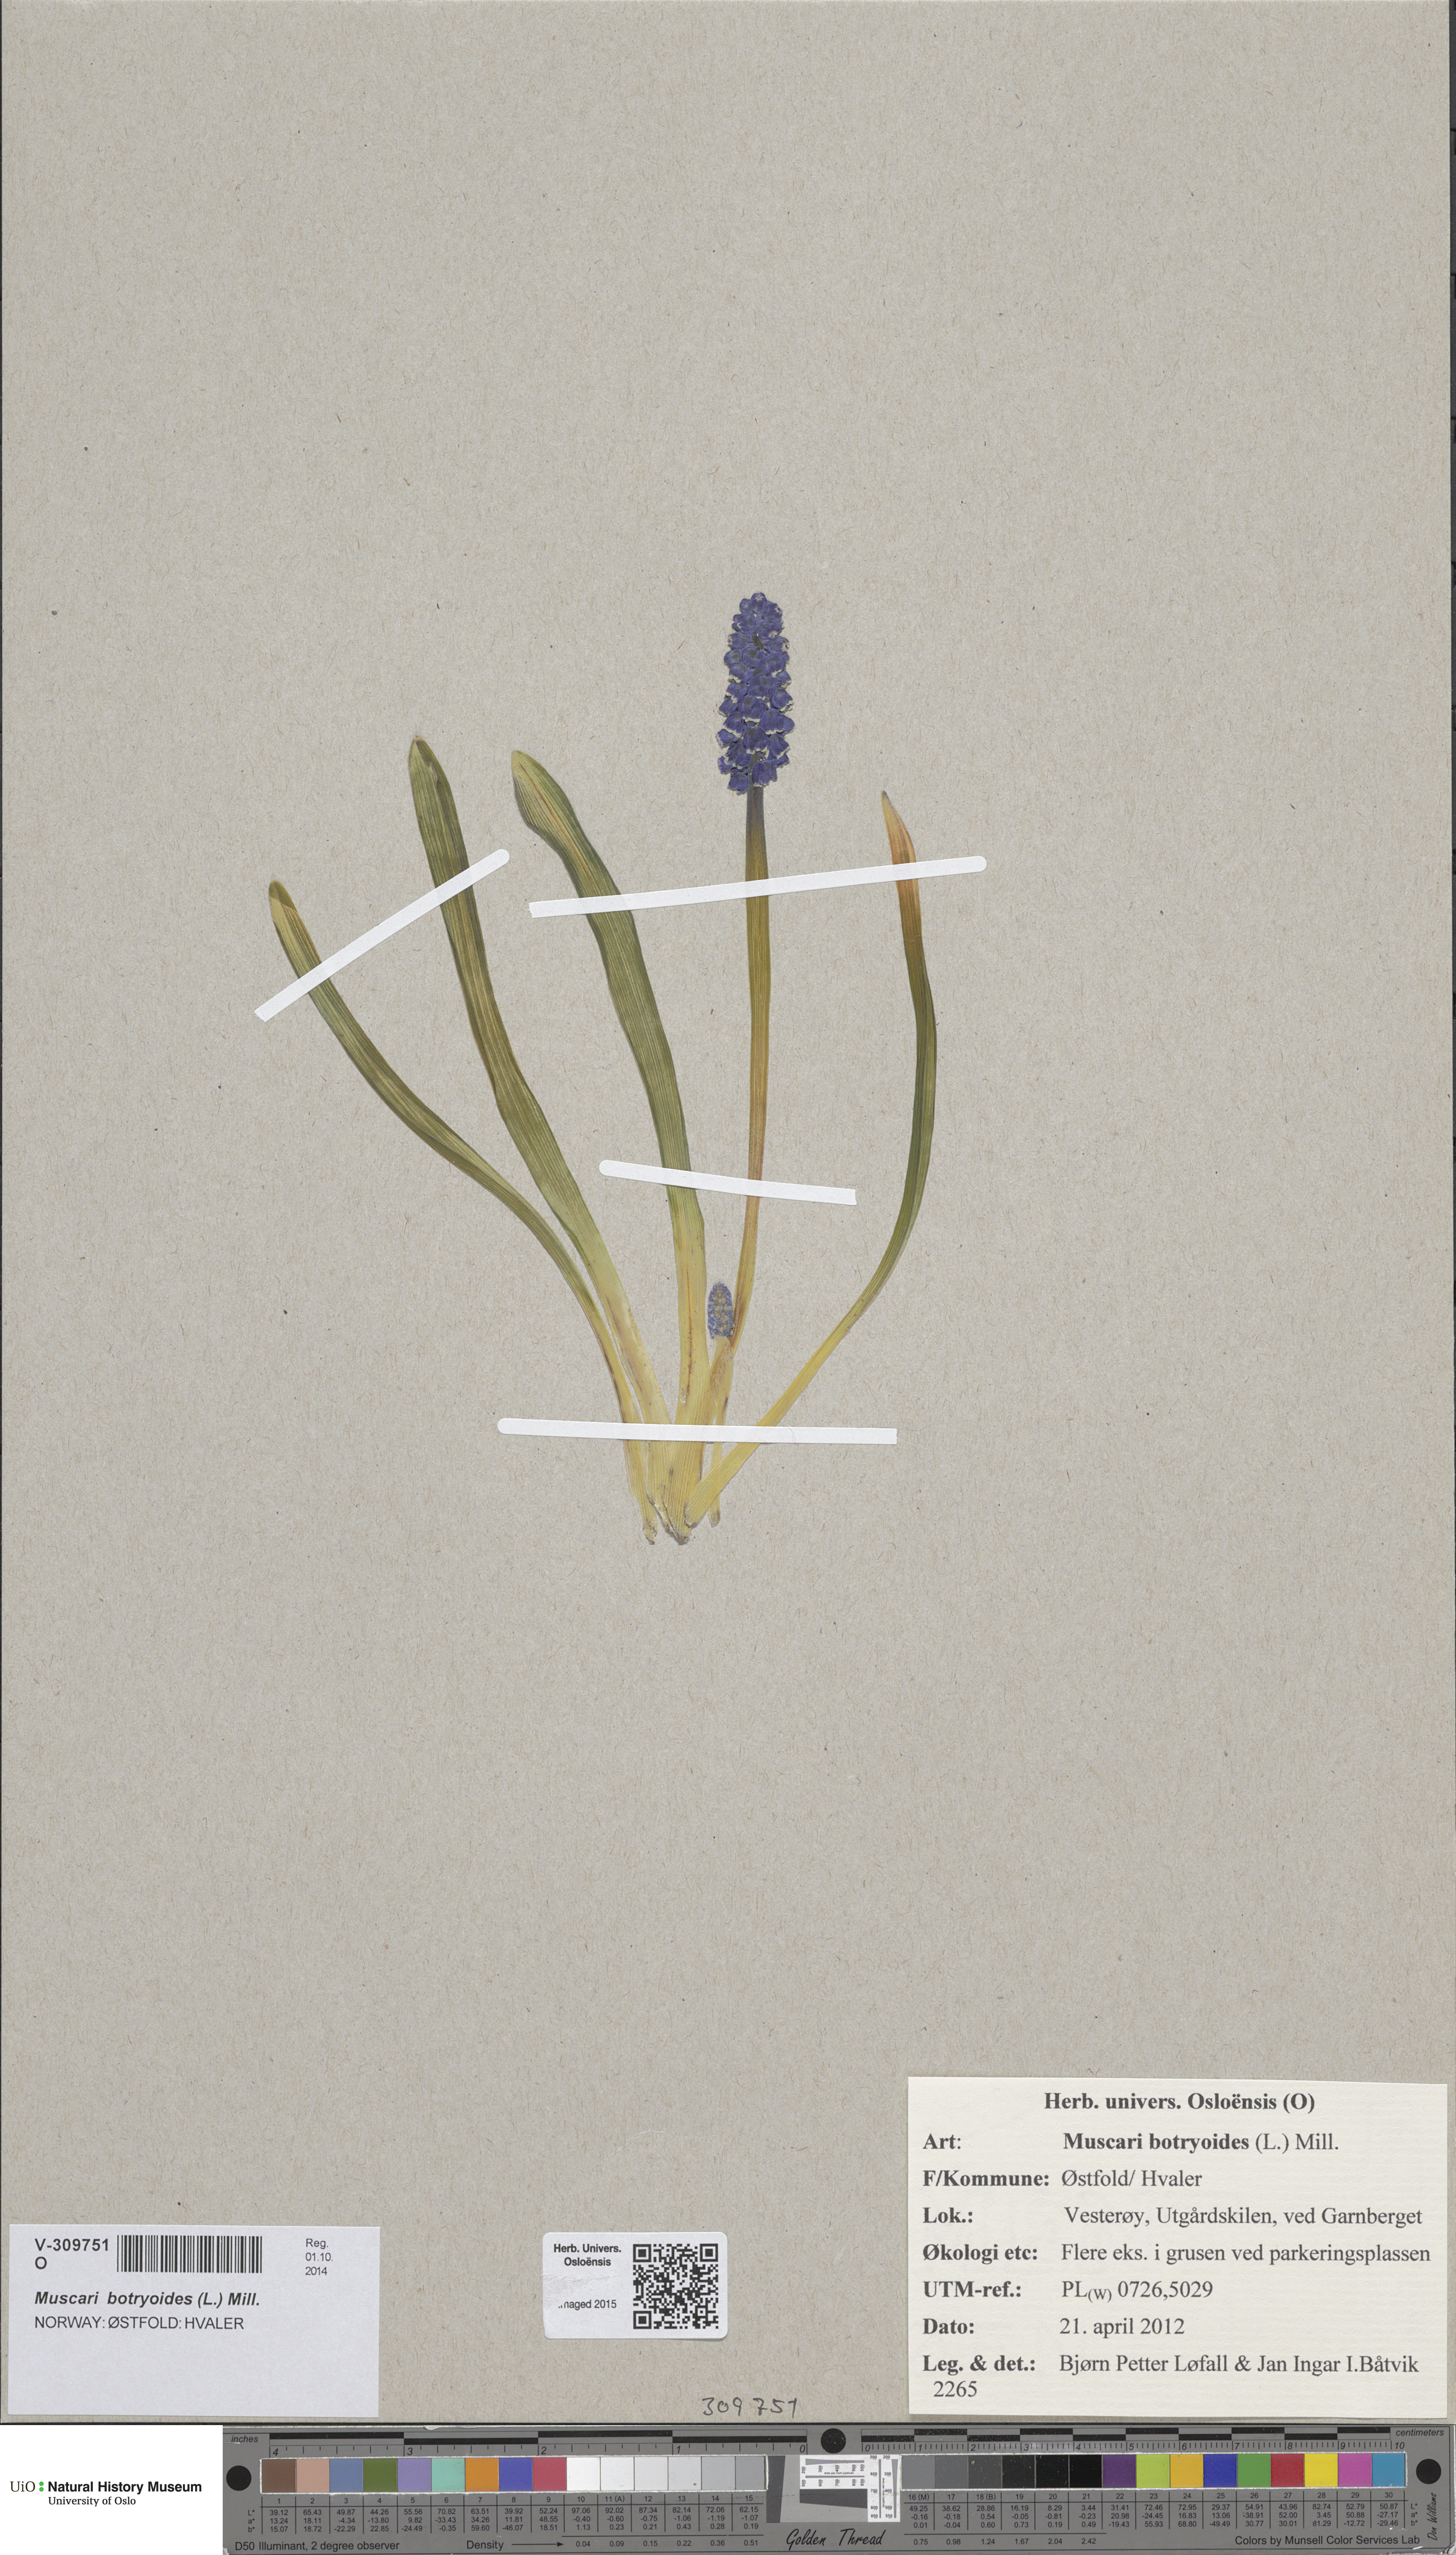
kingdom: Plantae
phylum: Tracheophyta
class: Liliopsida
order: Asparagales
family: Asparagaceae
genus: Muscari
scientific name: Muscari botryoides
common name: Compact grape-hyacinth
